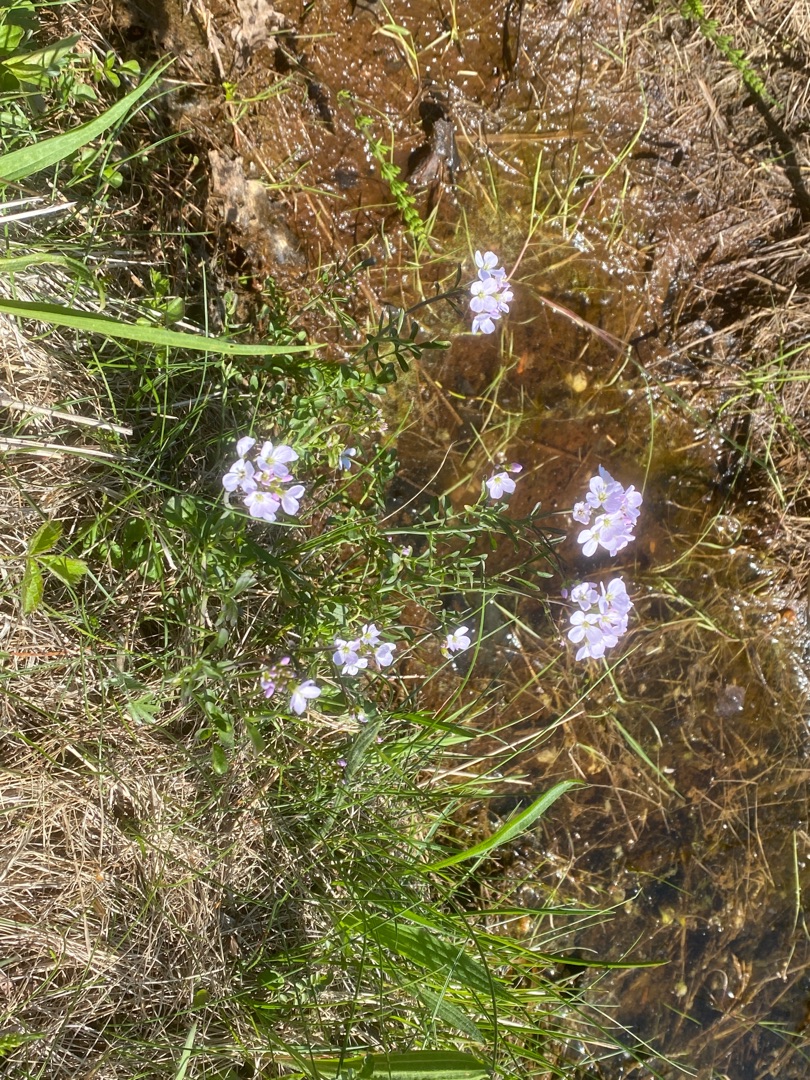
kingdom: Plantae
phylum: Tracheophyta
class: Magnoliopsida
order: Brassicales
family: Brassicaceae
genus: Cardamine
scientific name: Cardamine pratensis
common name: Engkarse
